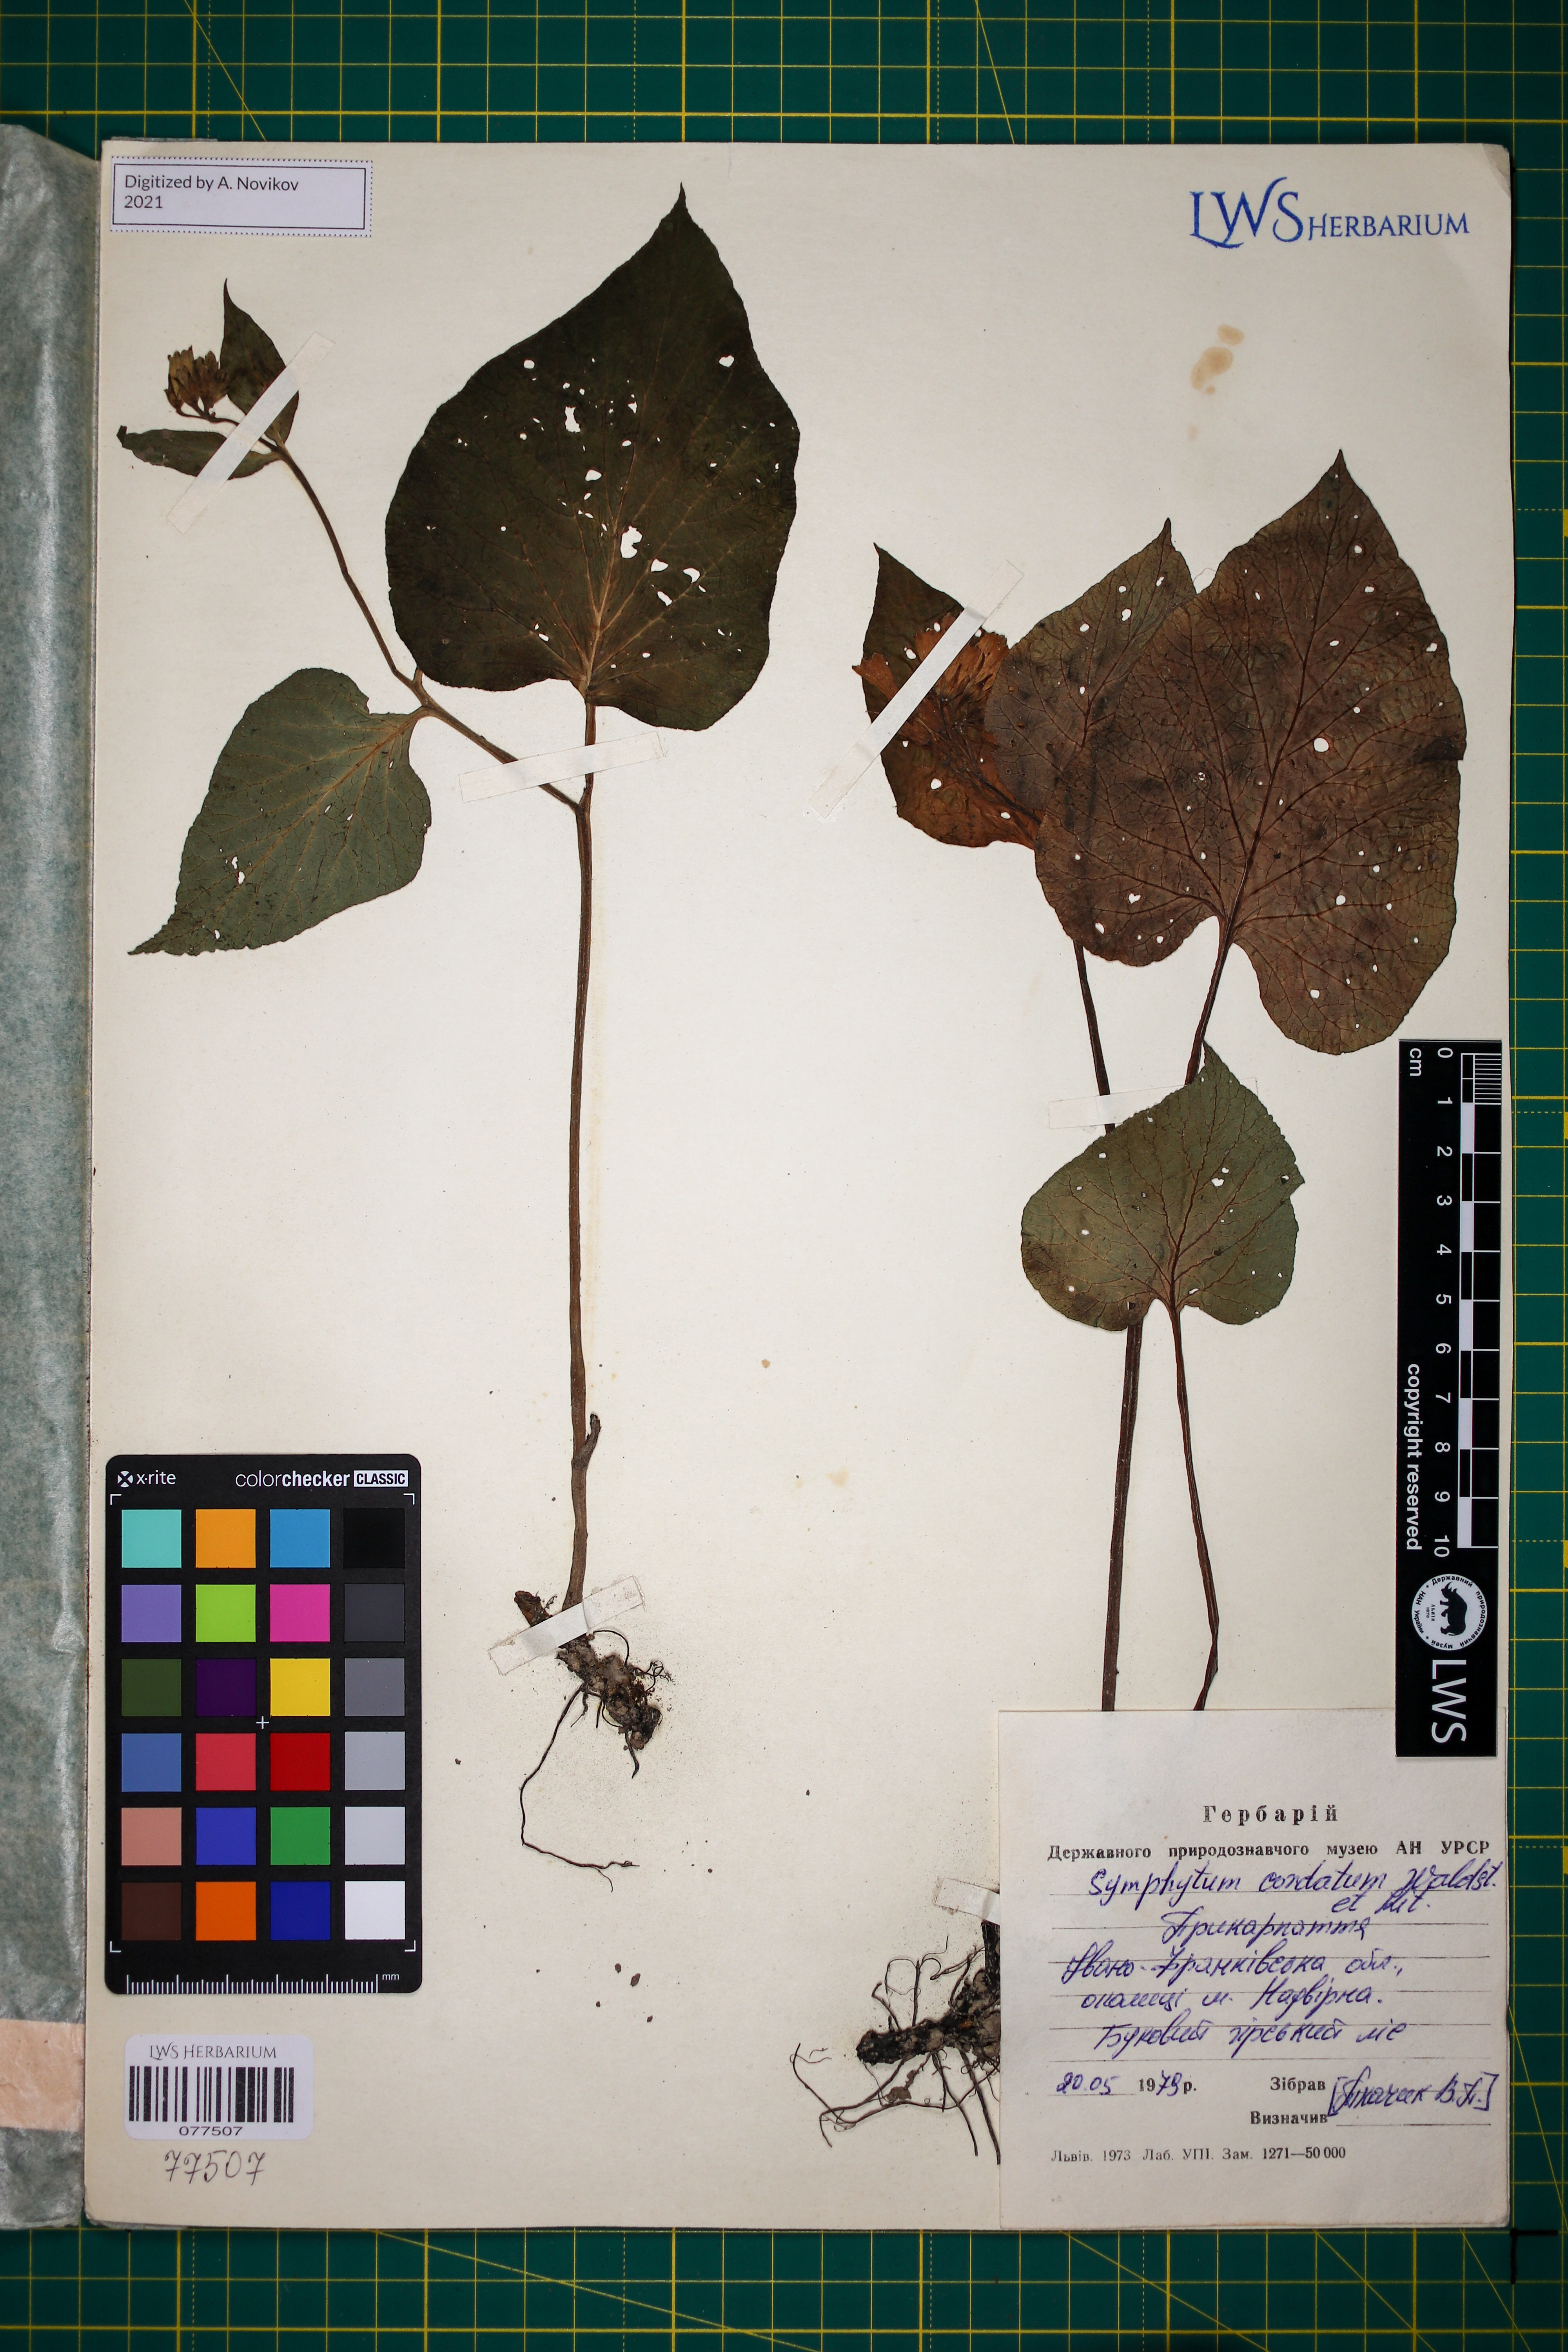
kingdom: Plantae
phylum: Tracheophyta
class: Magnoliopsida
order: Boraginales
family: Boraginaceae
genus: Symphytum
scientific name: Symphytum cordatum
